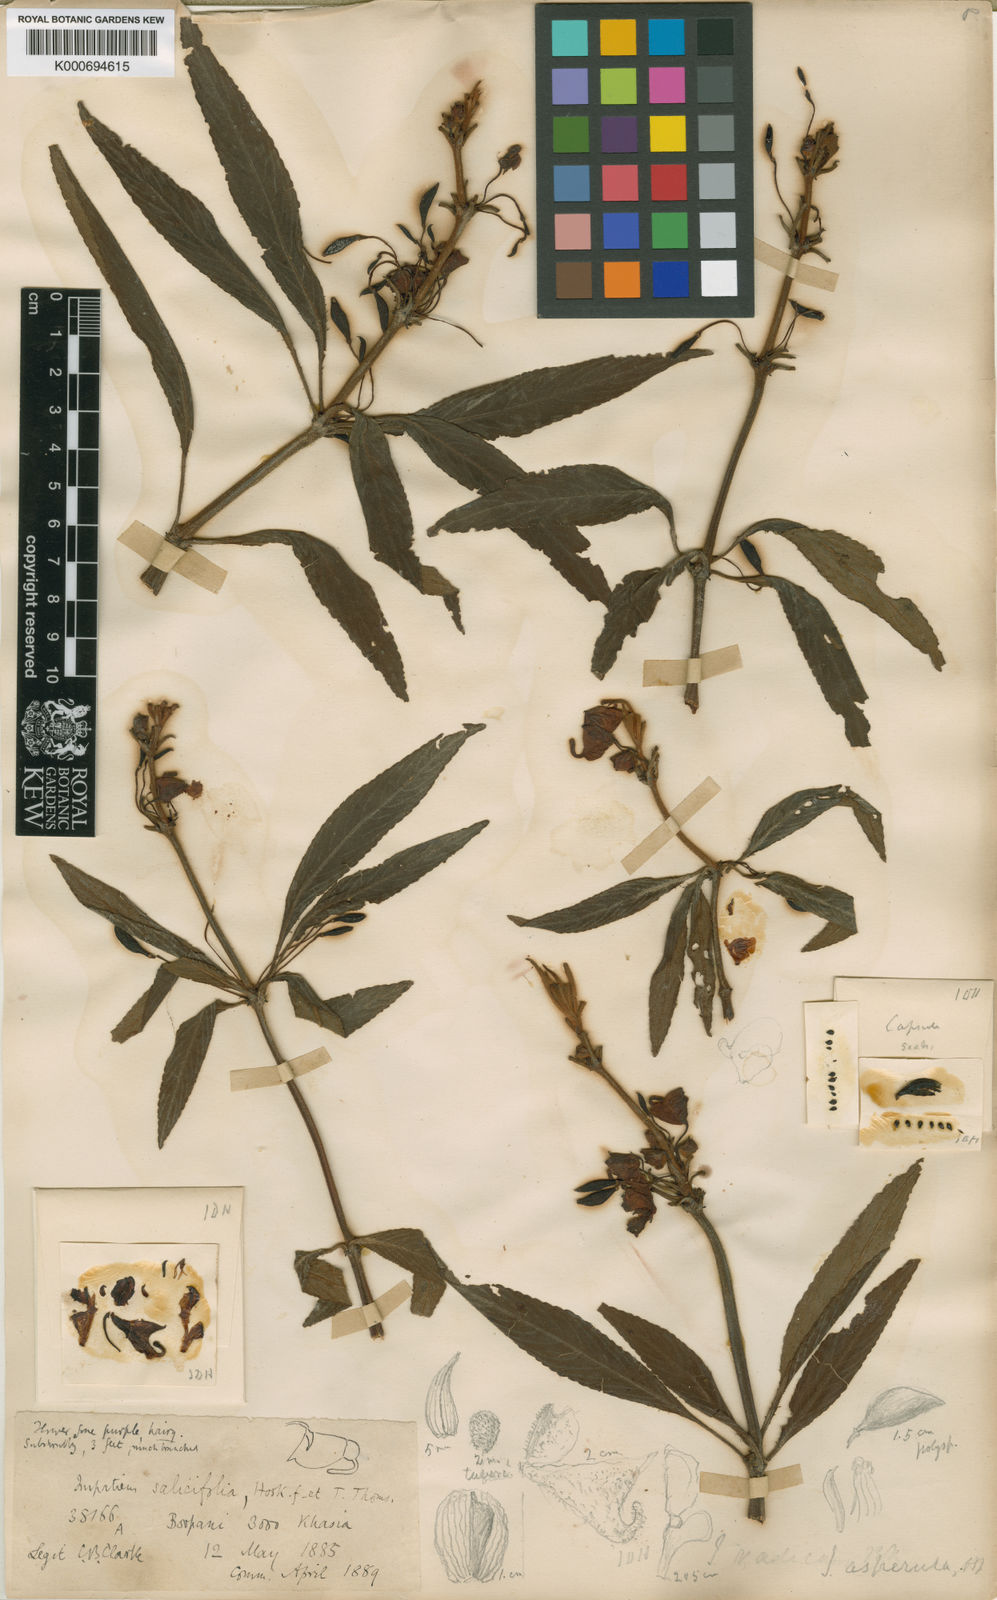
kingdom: Plantae
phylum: Tracheophyta
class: Magnoliopsida
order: Ericales
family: Balsaminaceae
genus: Impatiens
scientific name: Impatiens
